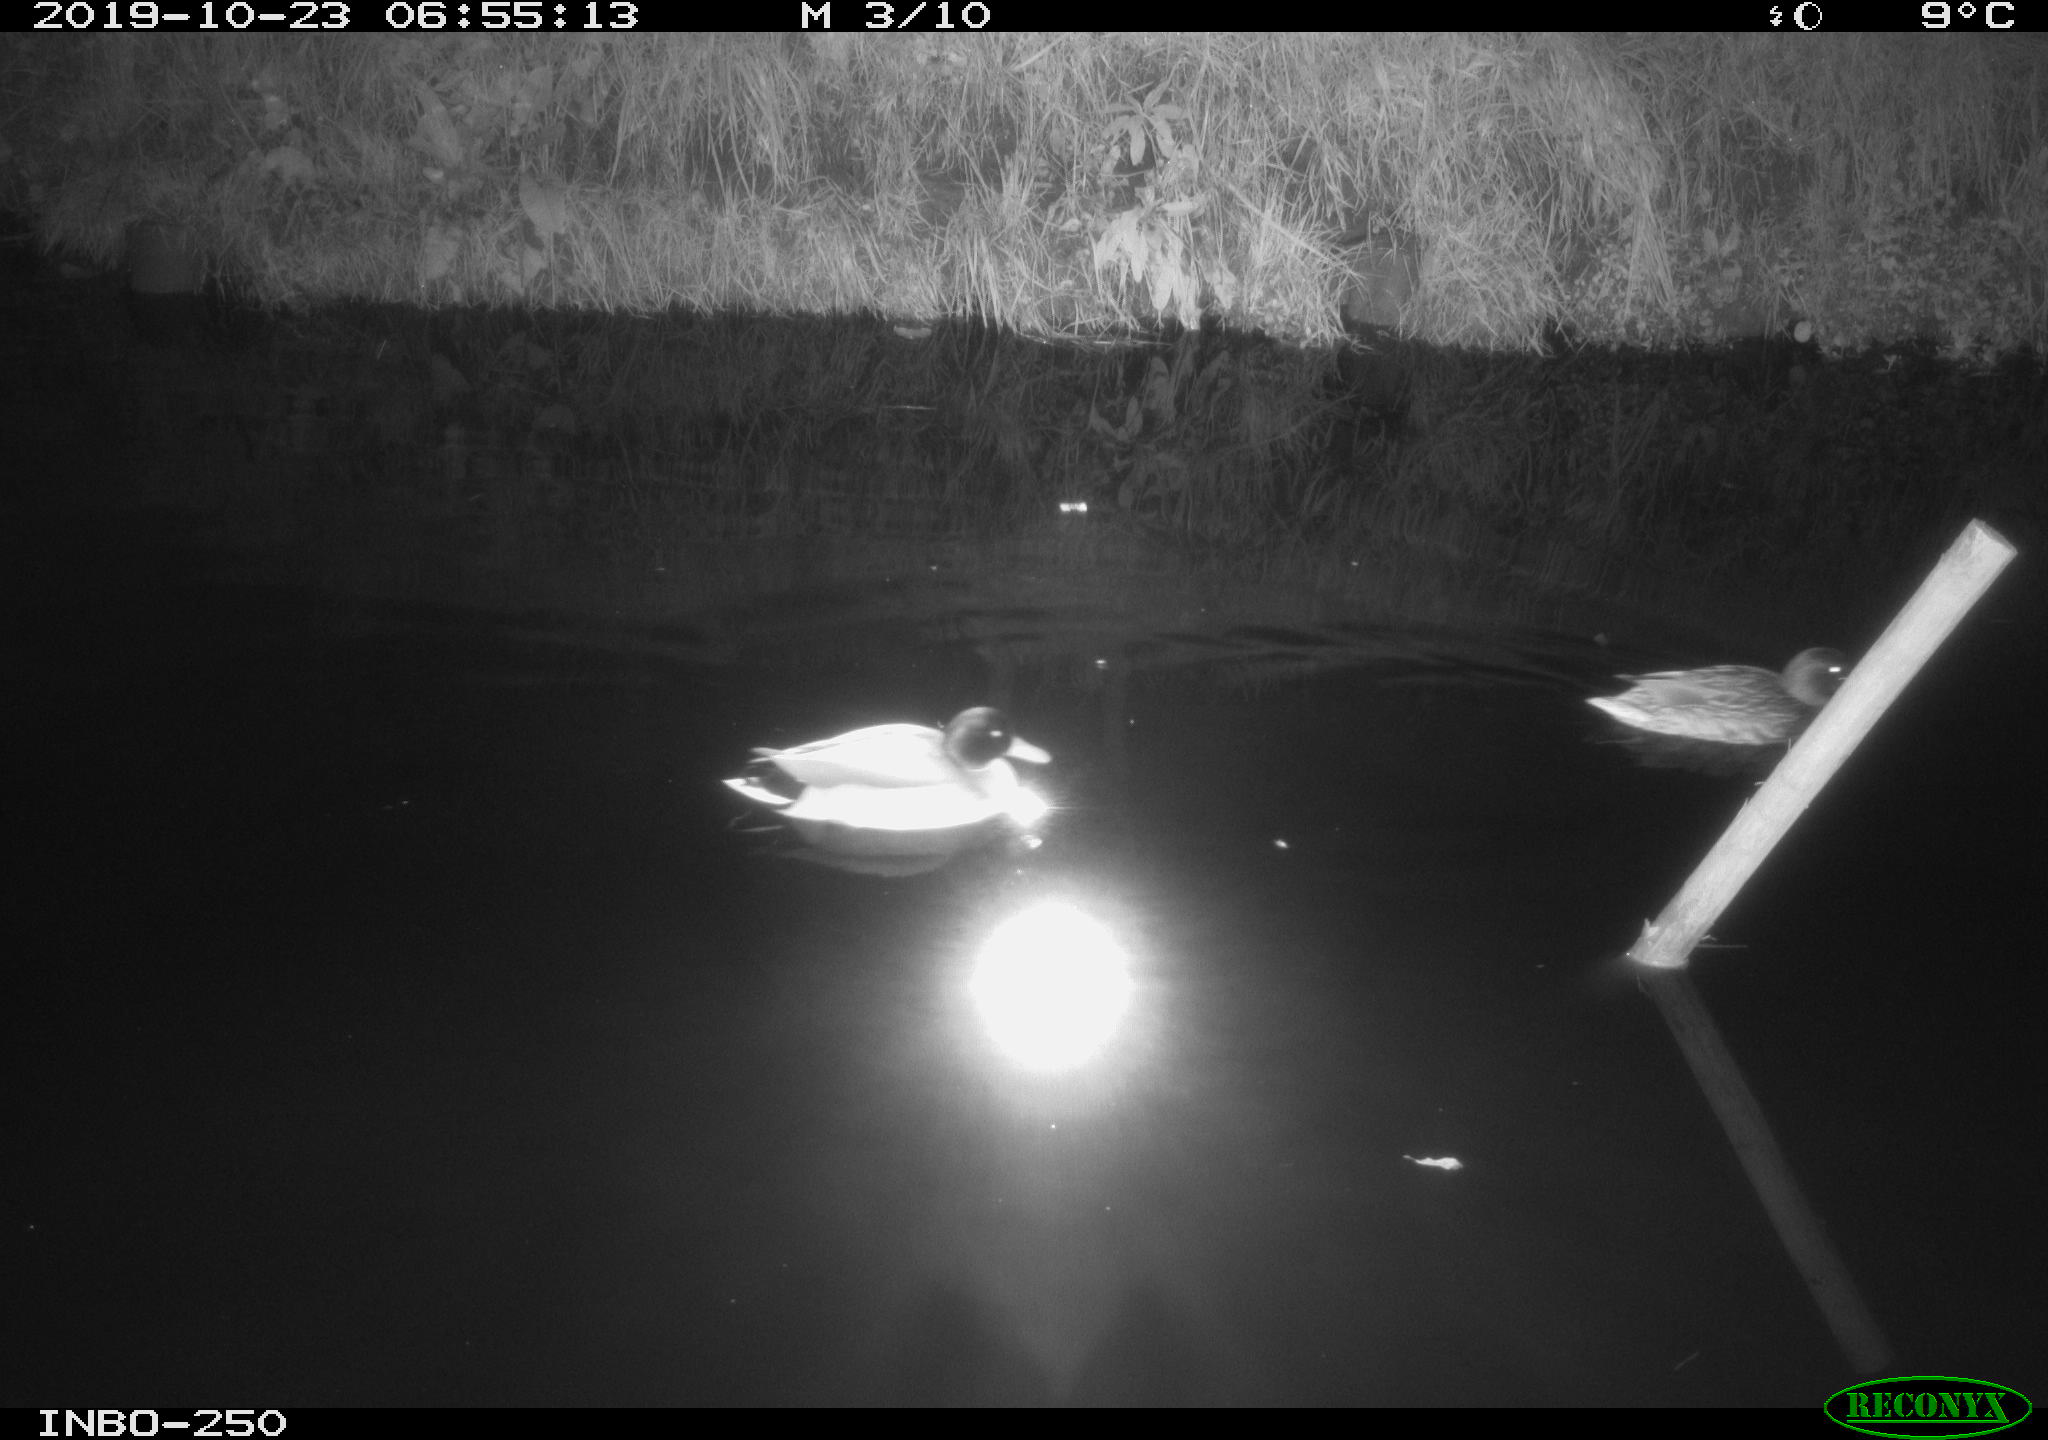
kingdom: Animalia
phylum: Chordata
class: Aves
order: Anseriformes
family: Anatidae
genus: Anas
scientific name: Anas platyrhynchos
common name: Mallard
